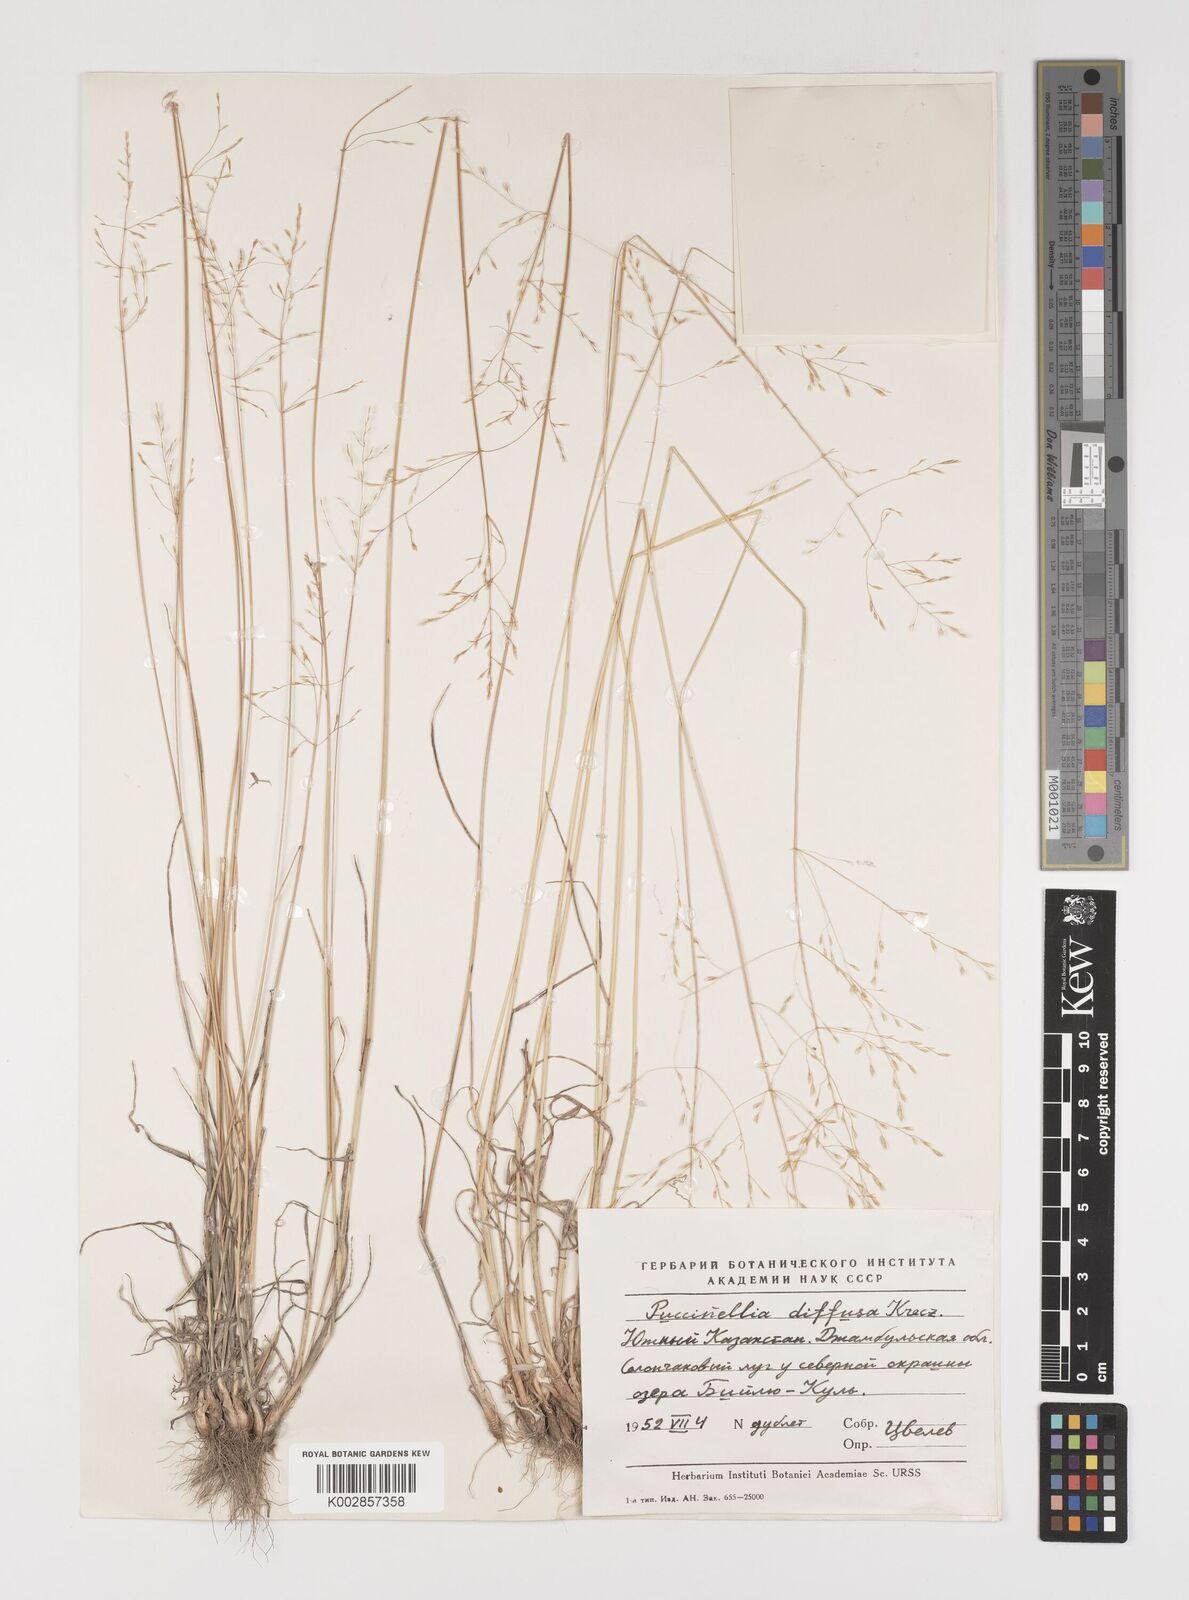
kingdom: Plantae
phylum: Tracheophyta
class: Liliopsida
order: Poales
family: Poaceae
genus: Puccinellia
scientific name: Puccinellia diffusa
